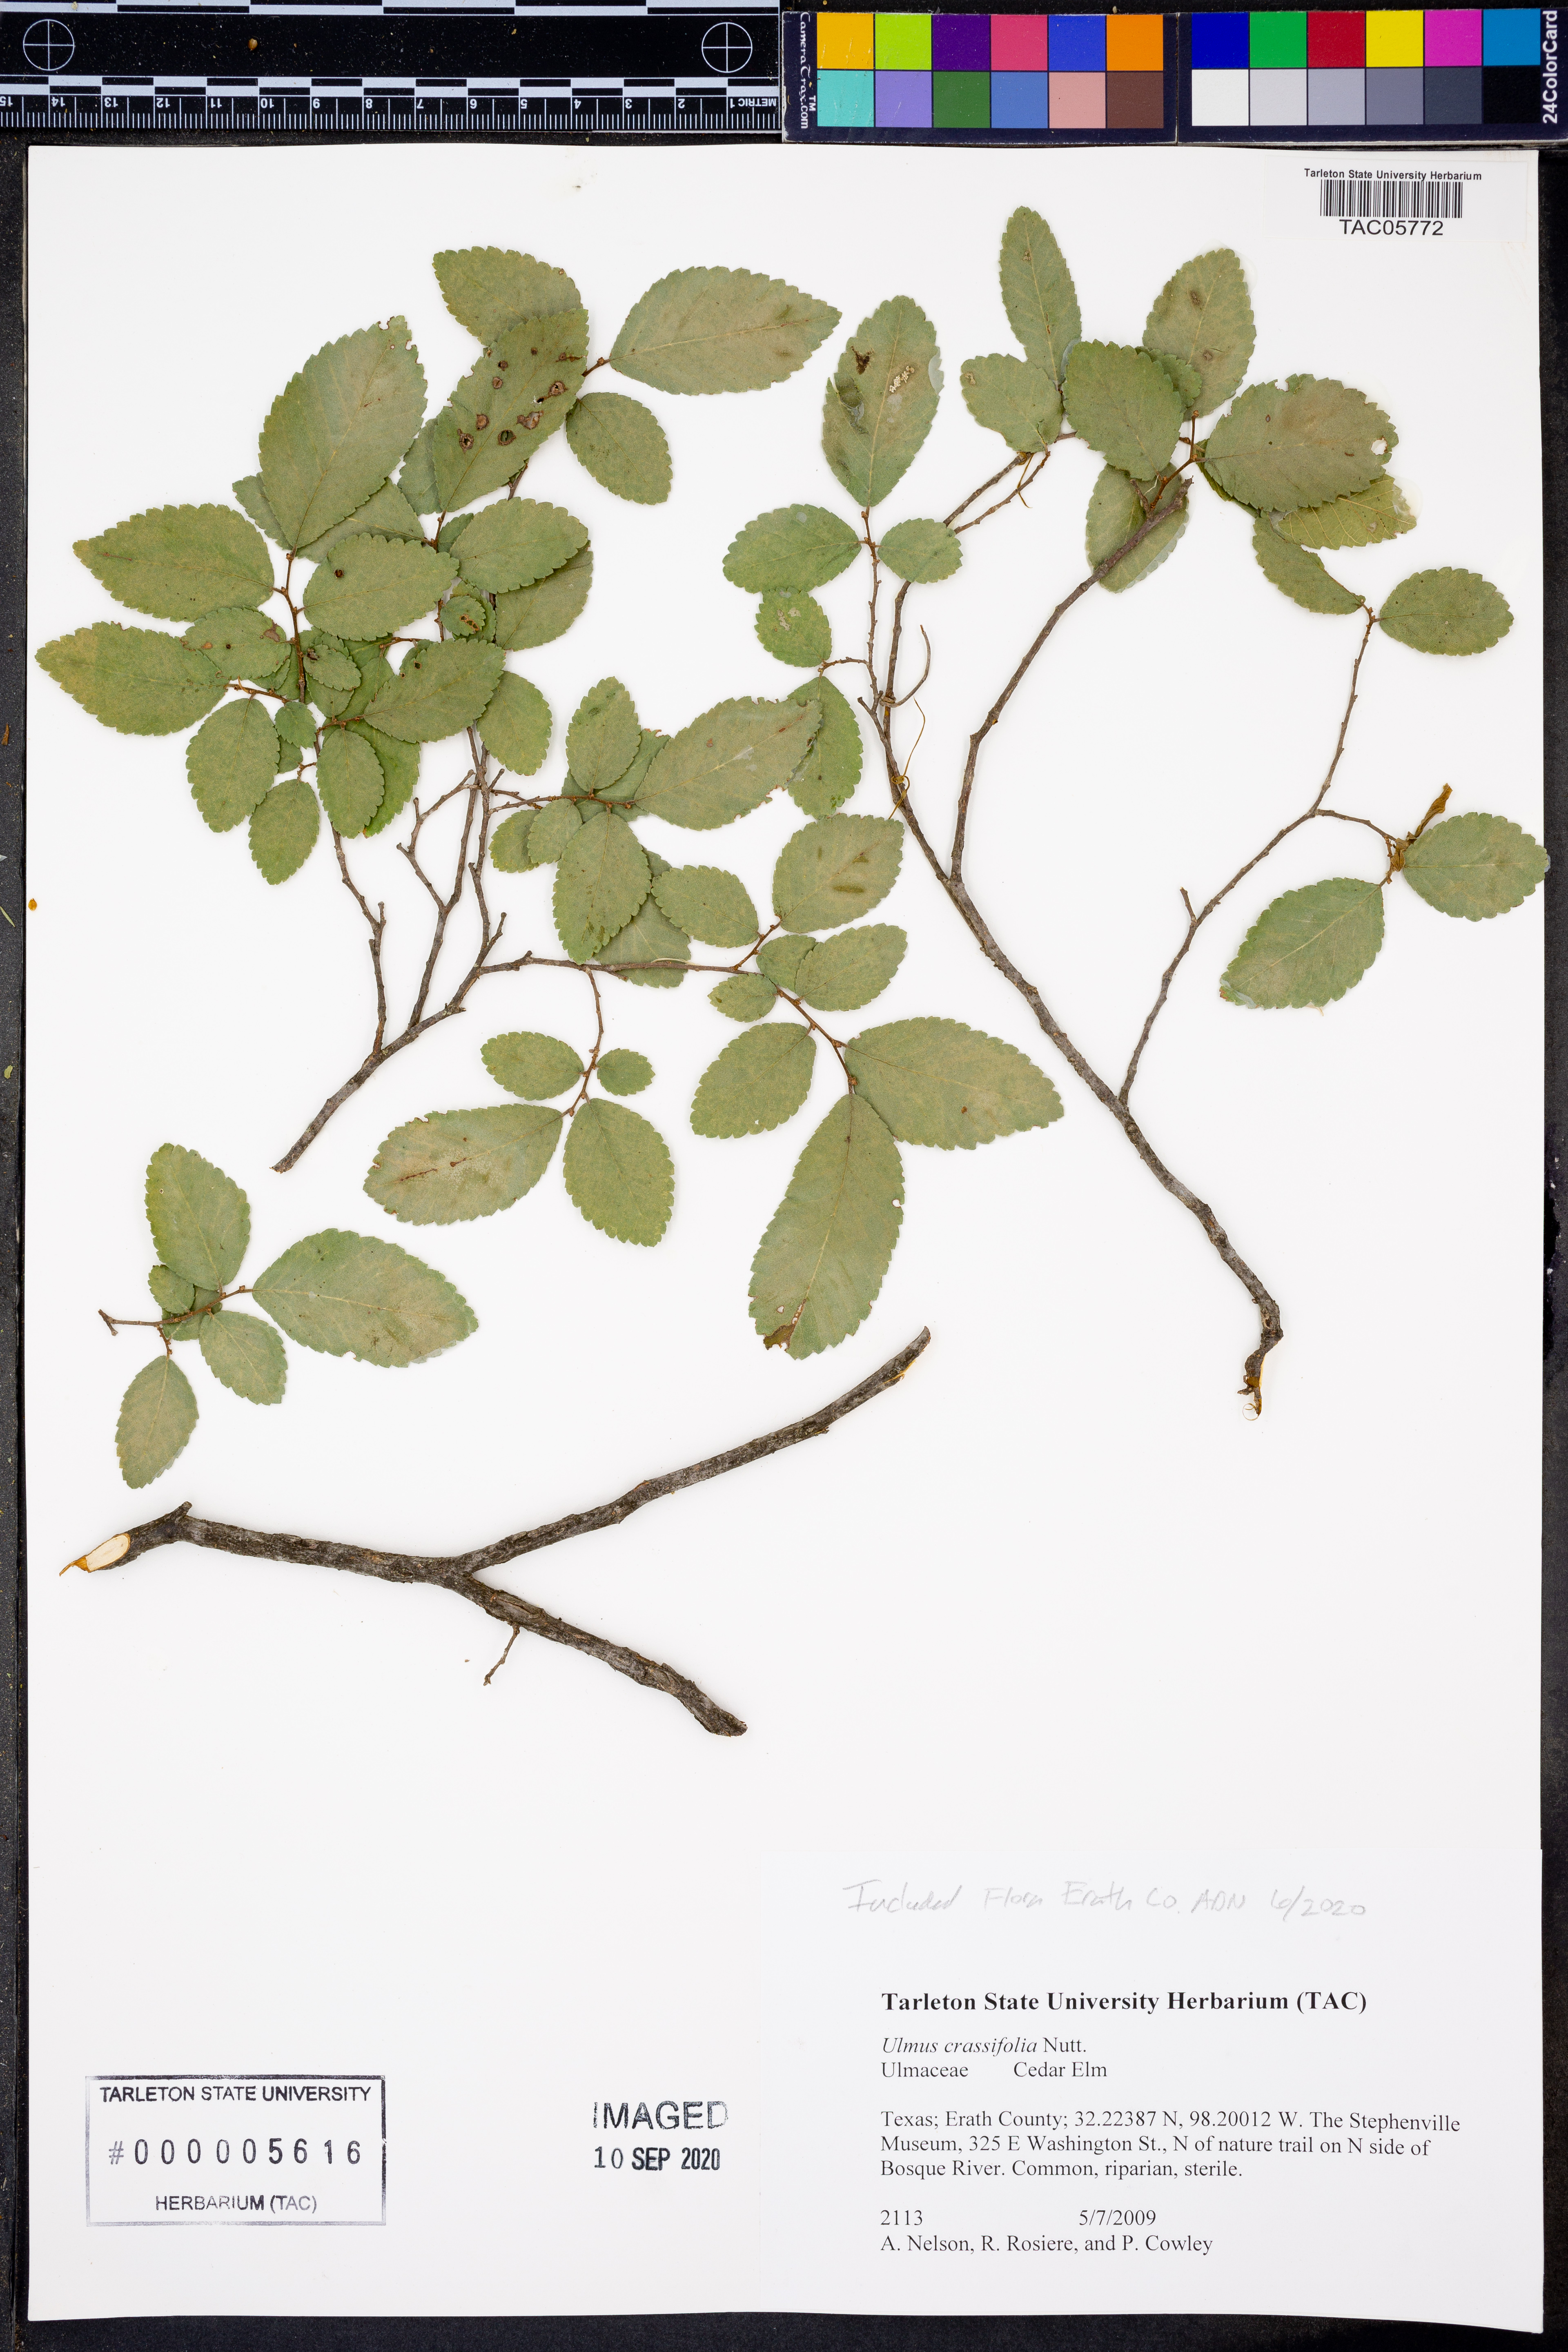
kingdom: Plantae
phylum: Tracheophyta
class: Magnoliopsida
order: Rosales
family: Ulmaceae
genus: Ulmus
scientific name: Ulmus crassifolia
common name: Basket elm
